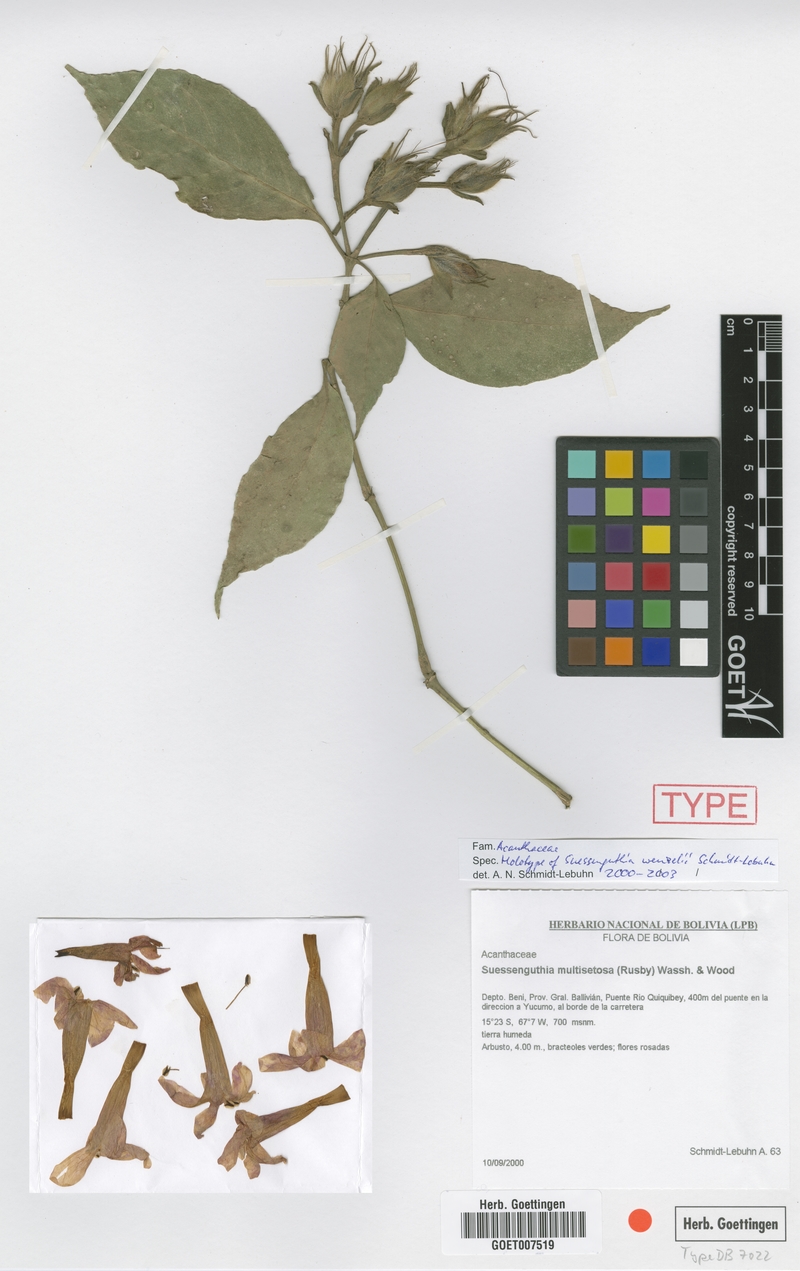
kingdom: Plantae
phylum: Tracheophyta
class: Magnoliopsida
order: Lamiales
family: Acanthaceae
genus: Suessenguthia
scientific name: Suessenguthia wenzelii
